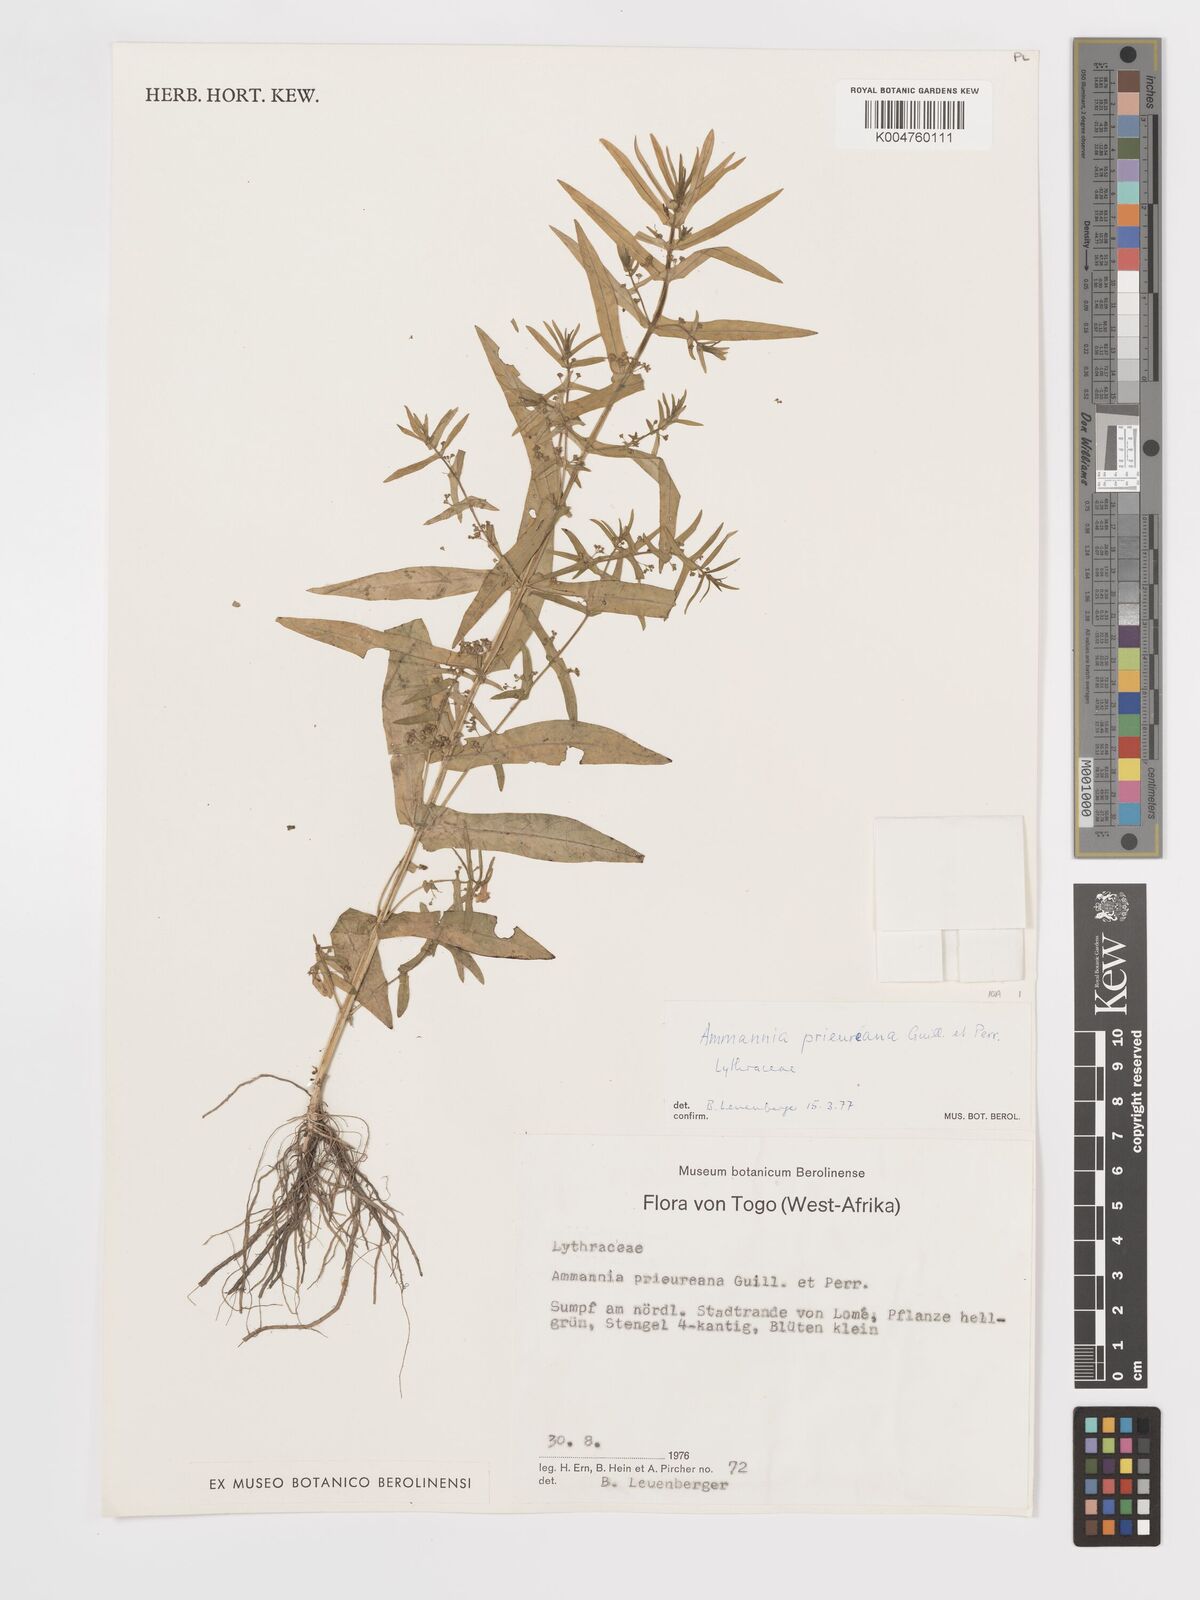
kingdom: Plantae
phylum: Tracheophyta
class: Magnoliopsida
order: Myrtales
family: Lythraceae
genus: Ammannia
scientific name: Ammannia prieuriana
